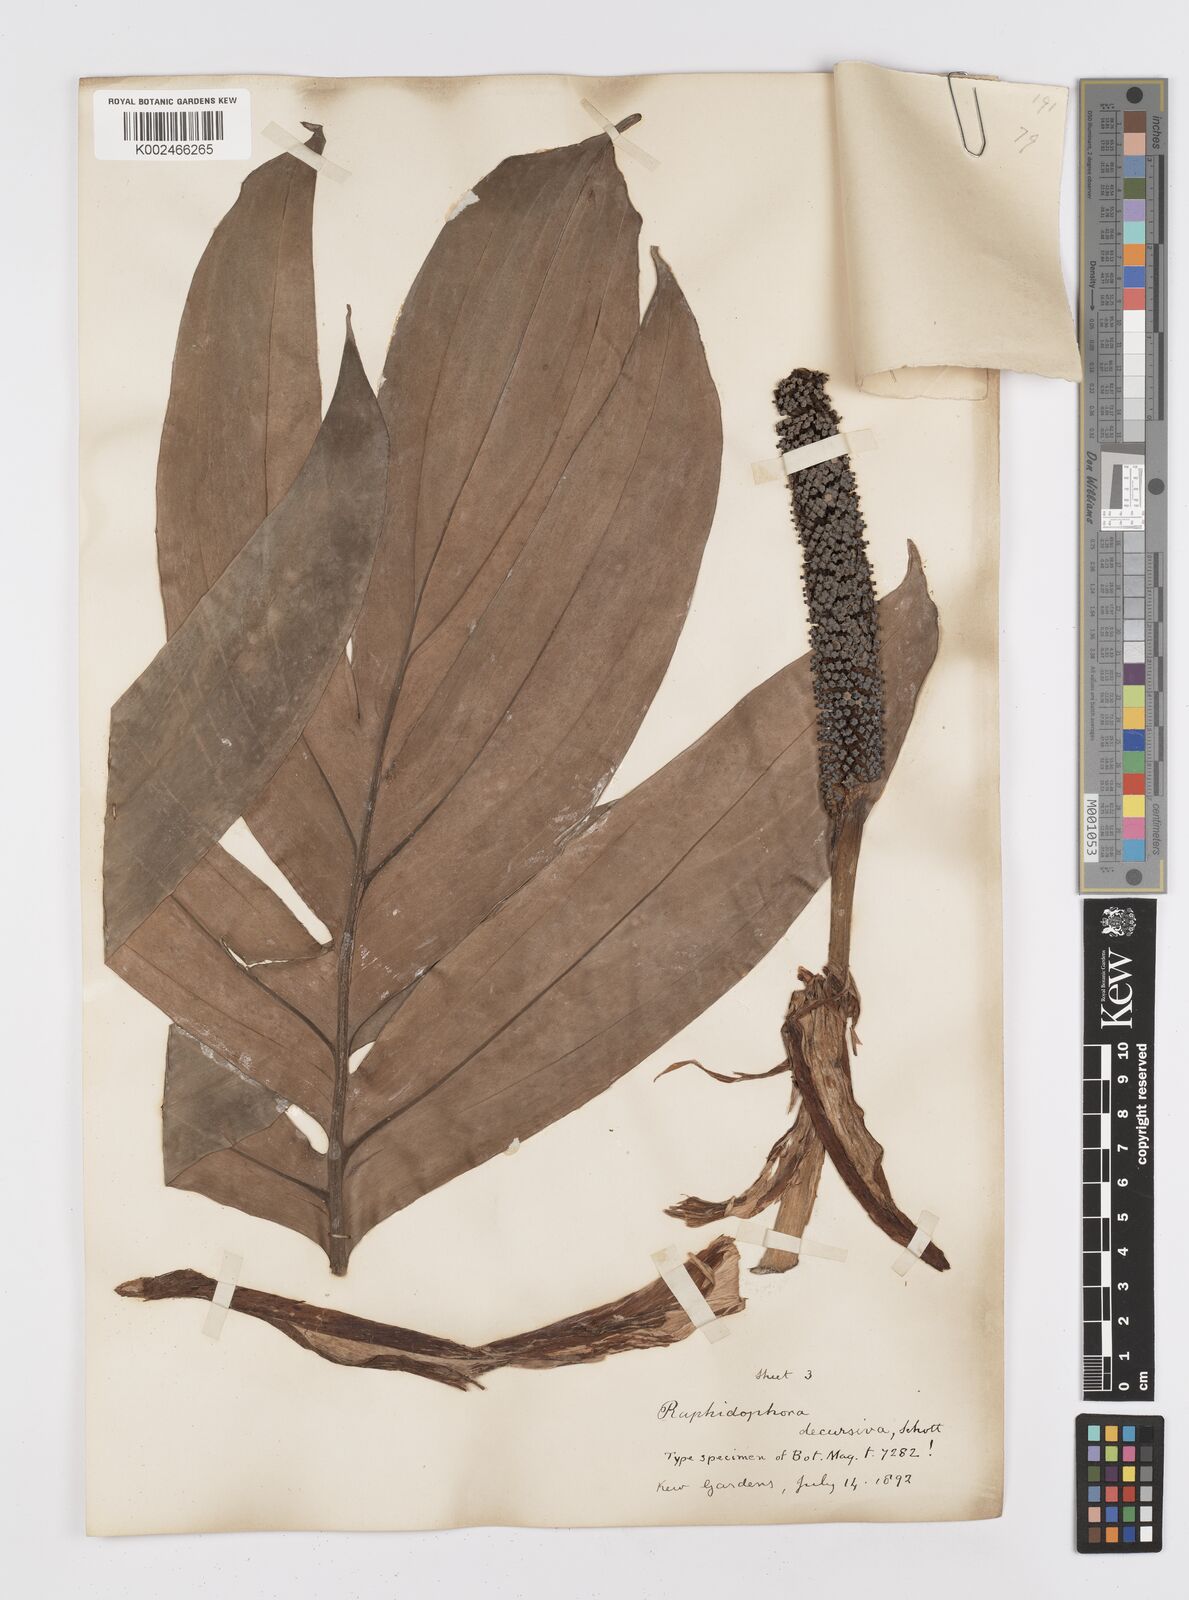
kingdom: Plantae
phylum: Tracheophyta
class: Liliopsida
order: Alismatales
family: Araceae
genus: Rhaphidophora
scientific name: Rhaphidophora decursiva
